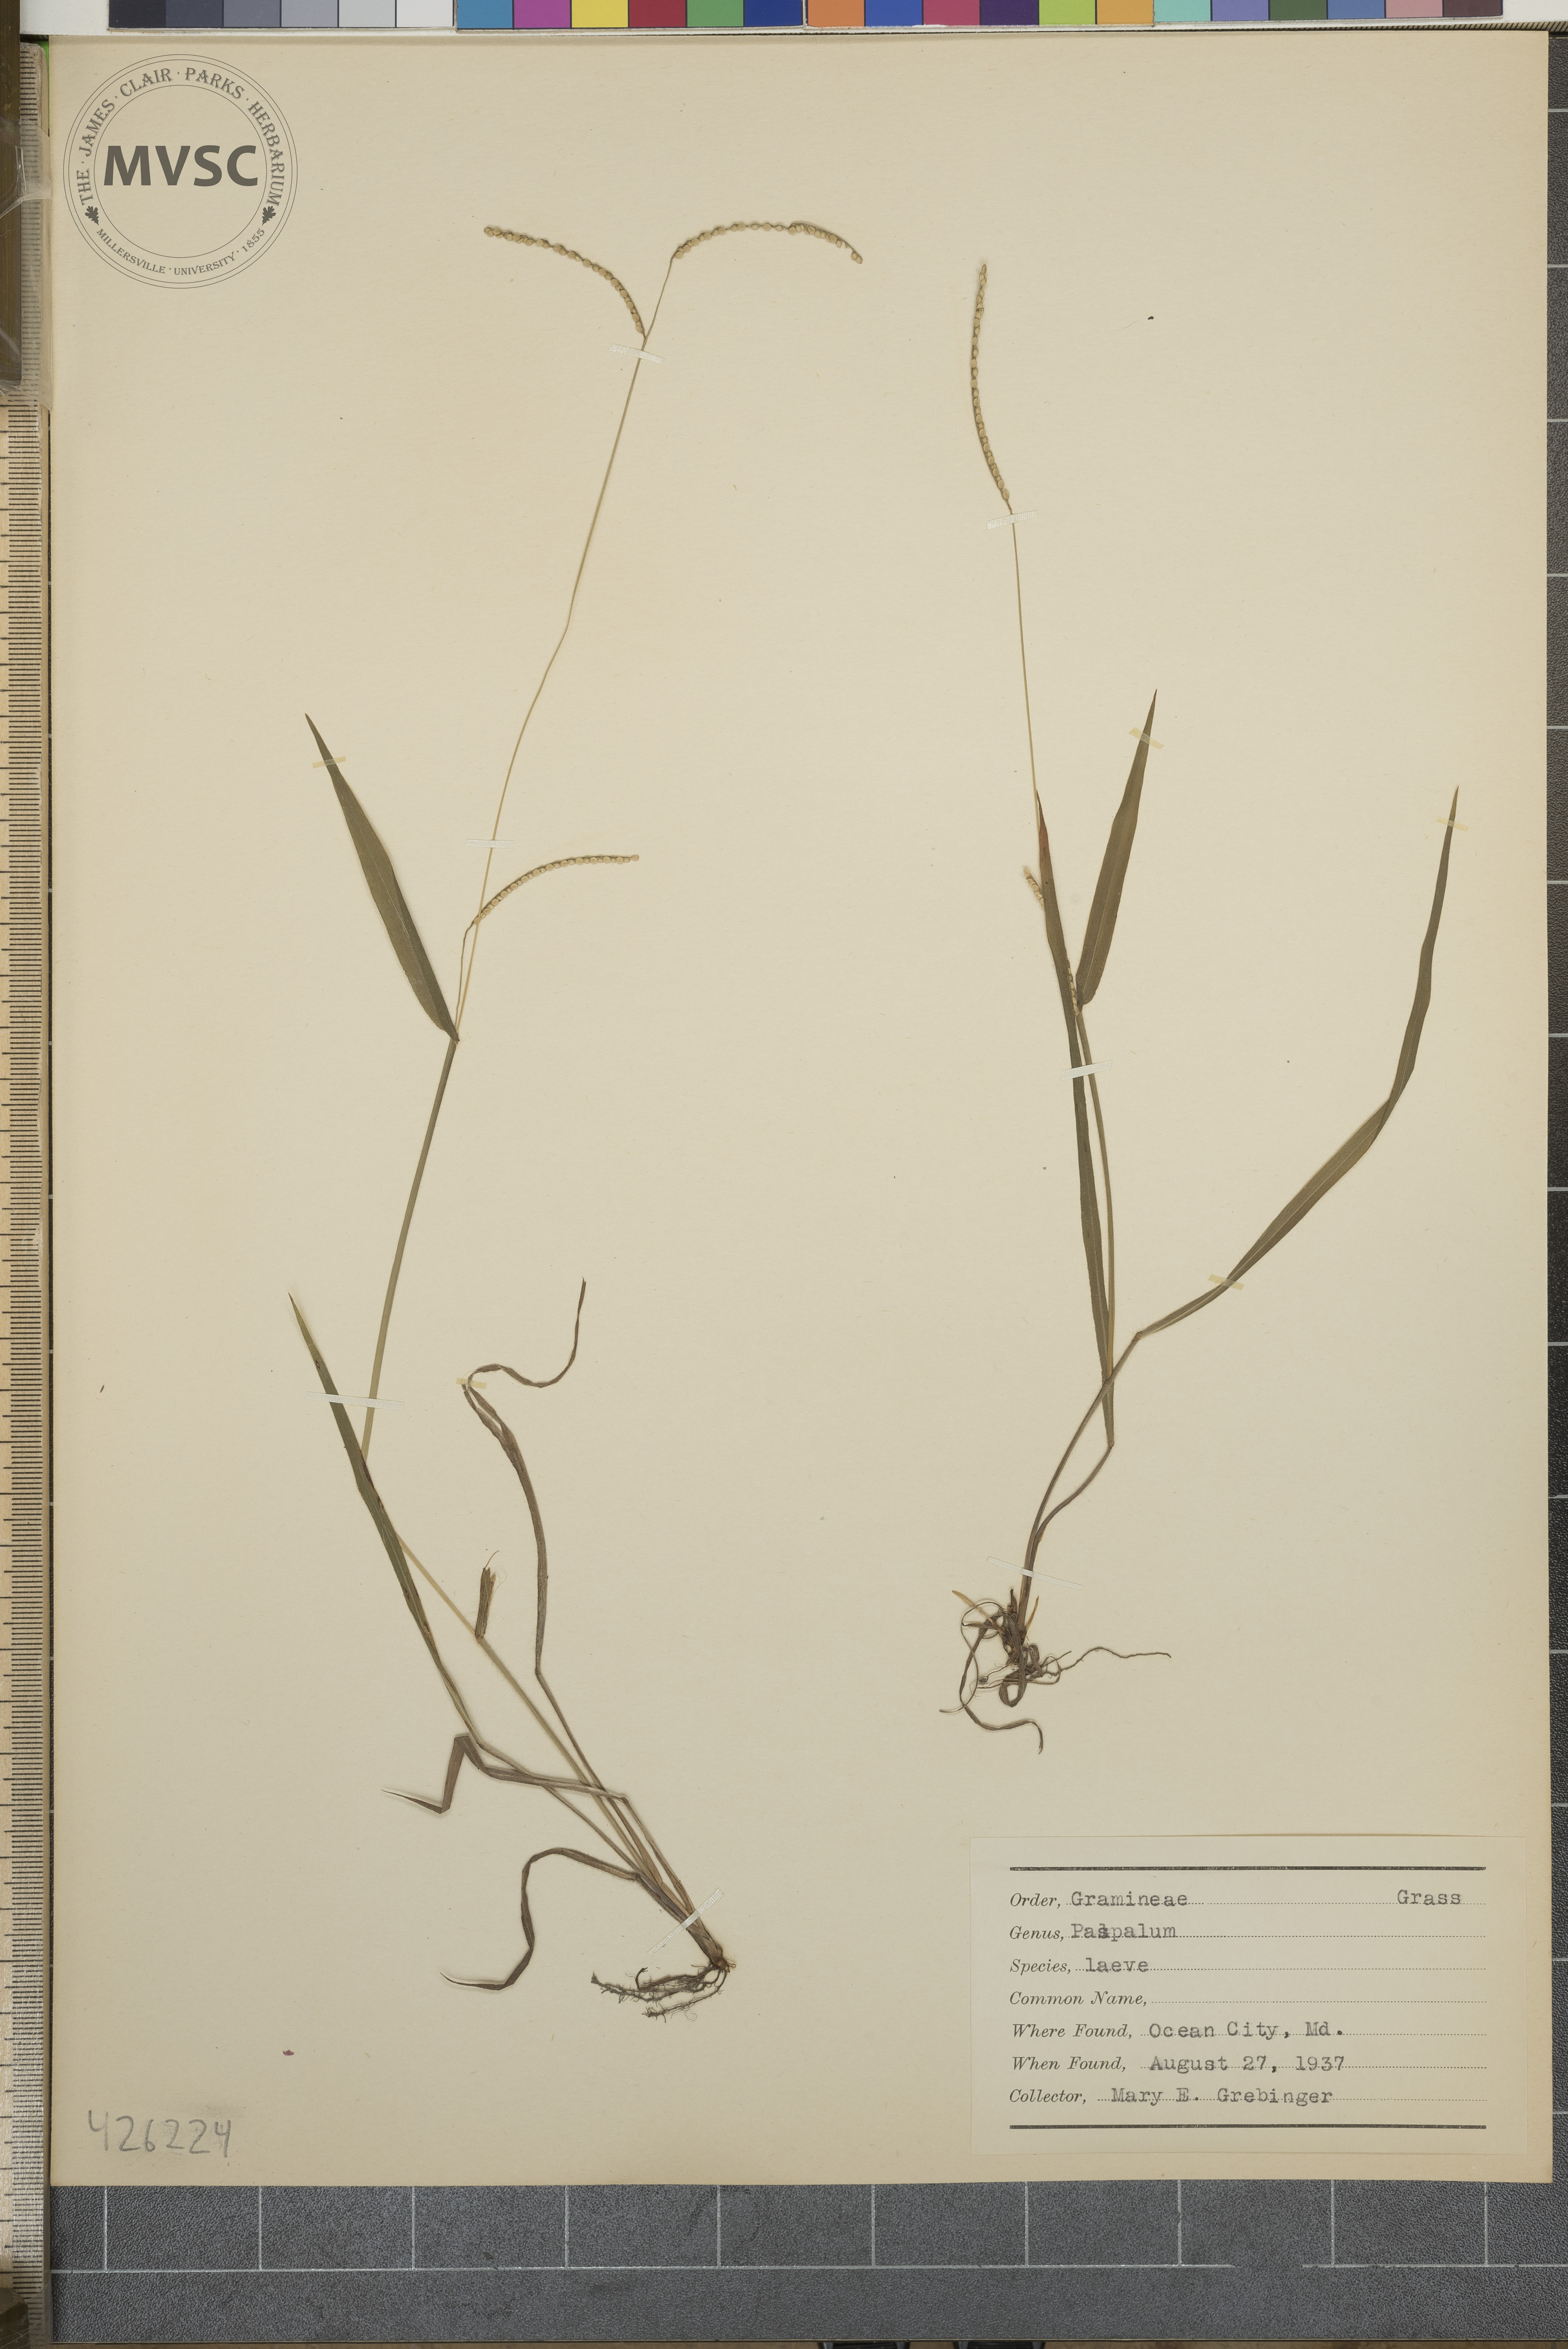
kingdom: Plantae
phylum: Tracheophyta
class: Liliopsida
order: Poales
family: Poaceae
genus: Paspalum
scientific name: Paspalum laeve
